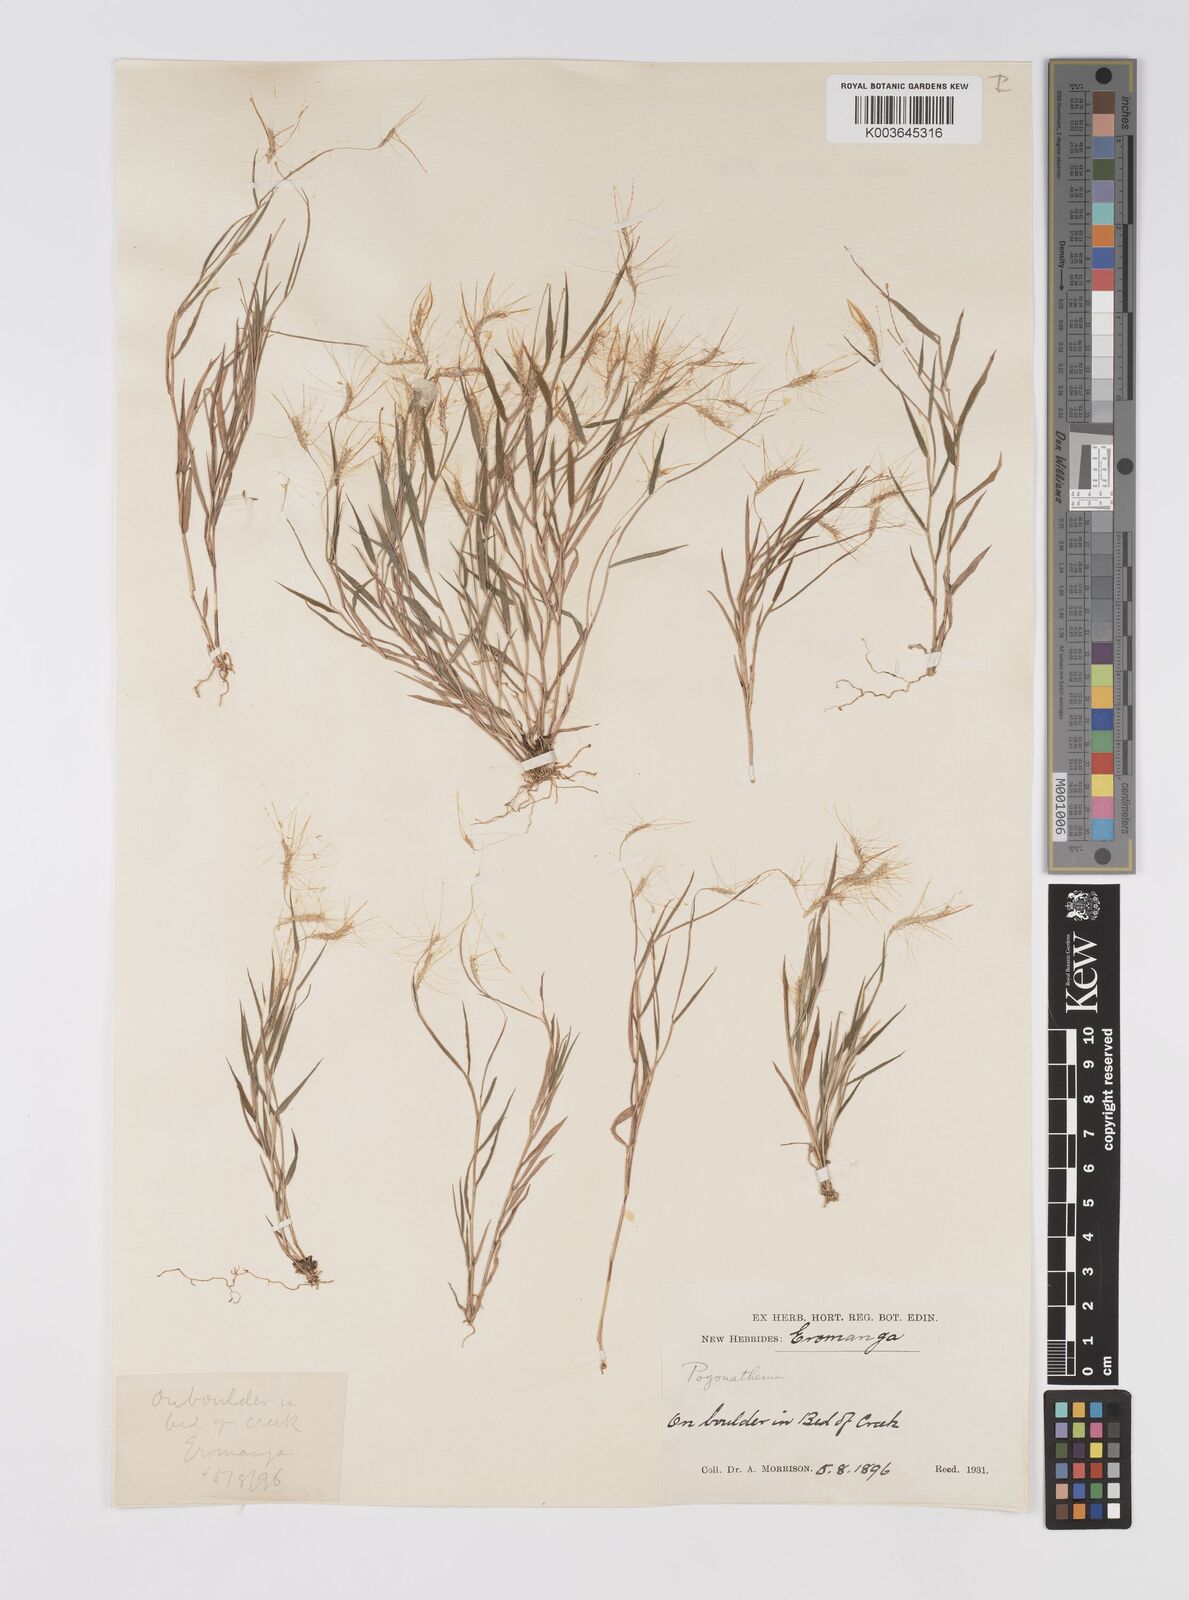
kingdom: Plantae
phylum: Tracheophyta
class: Liliopsida
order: Poales
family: Poaceae
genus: Pogonatherum
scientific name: Pogonatherum crinitum
